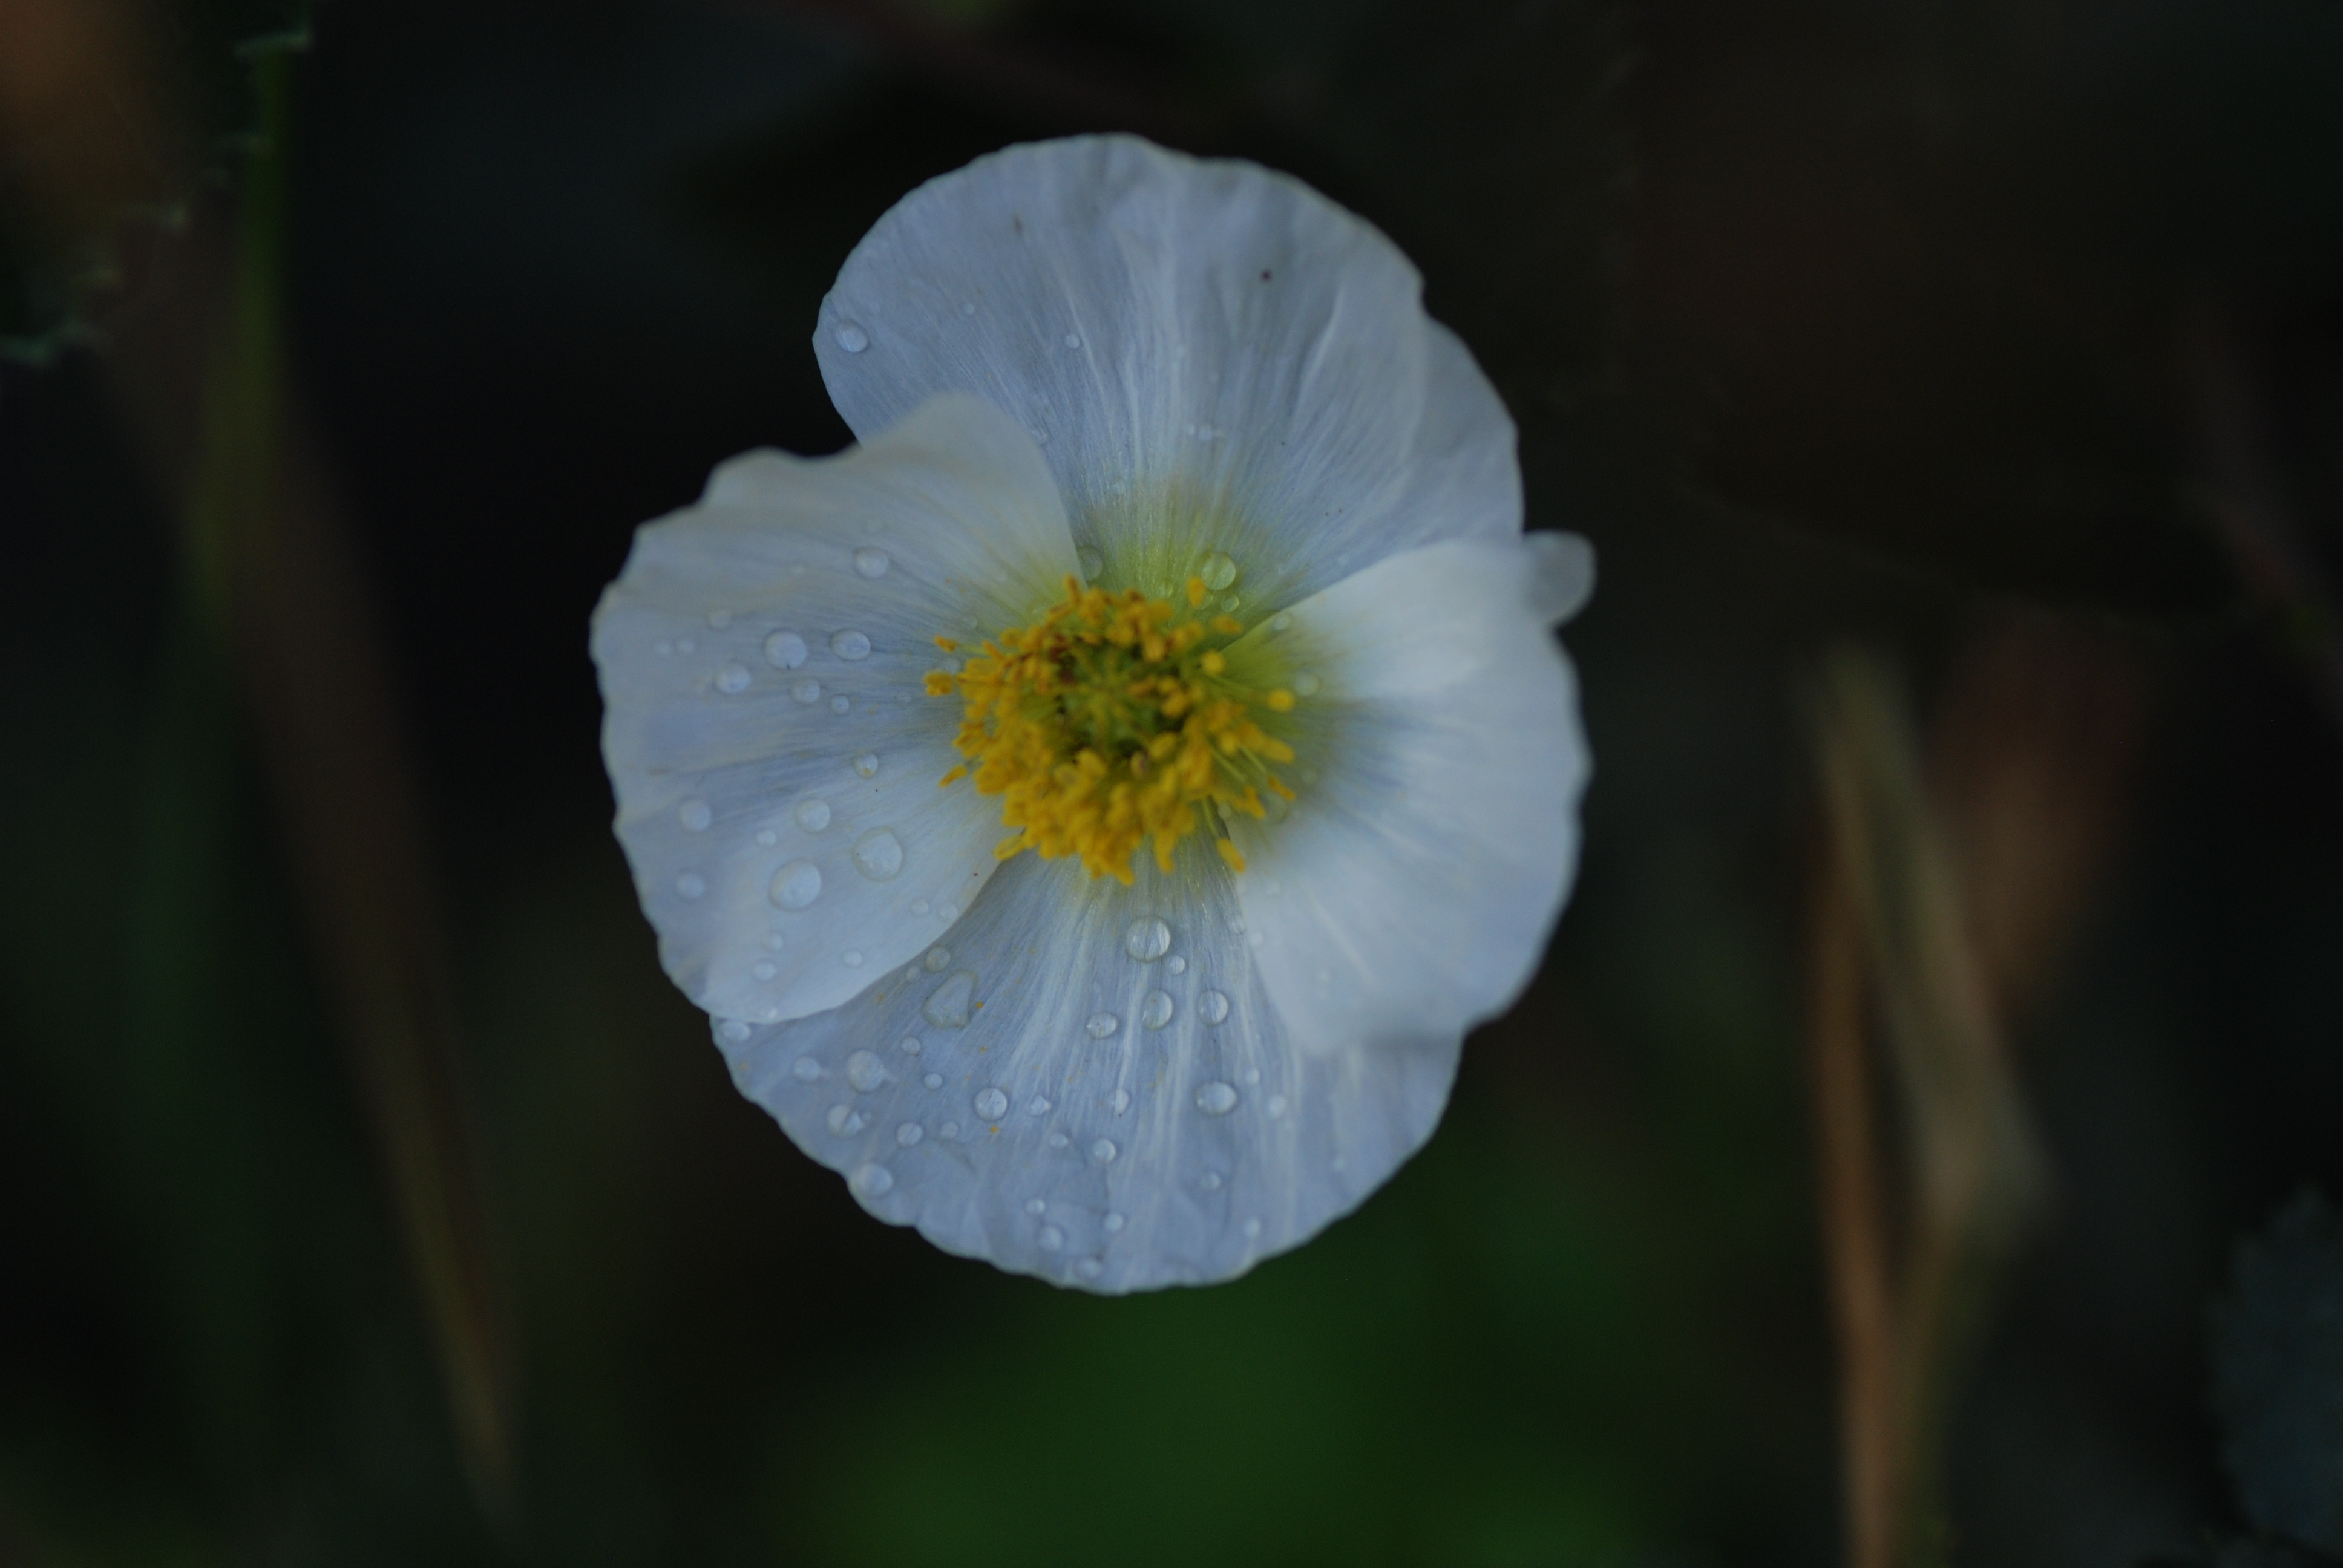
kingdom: Plantae
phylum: Tracheophyta
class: Magnoliopsida
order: Ranunculales
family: Papaveraceae
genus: Papaver
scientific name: Papaver nudicaule
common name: Arctic poppy
